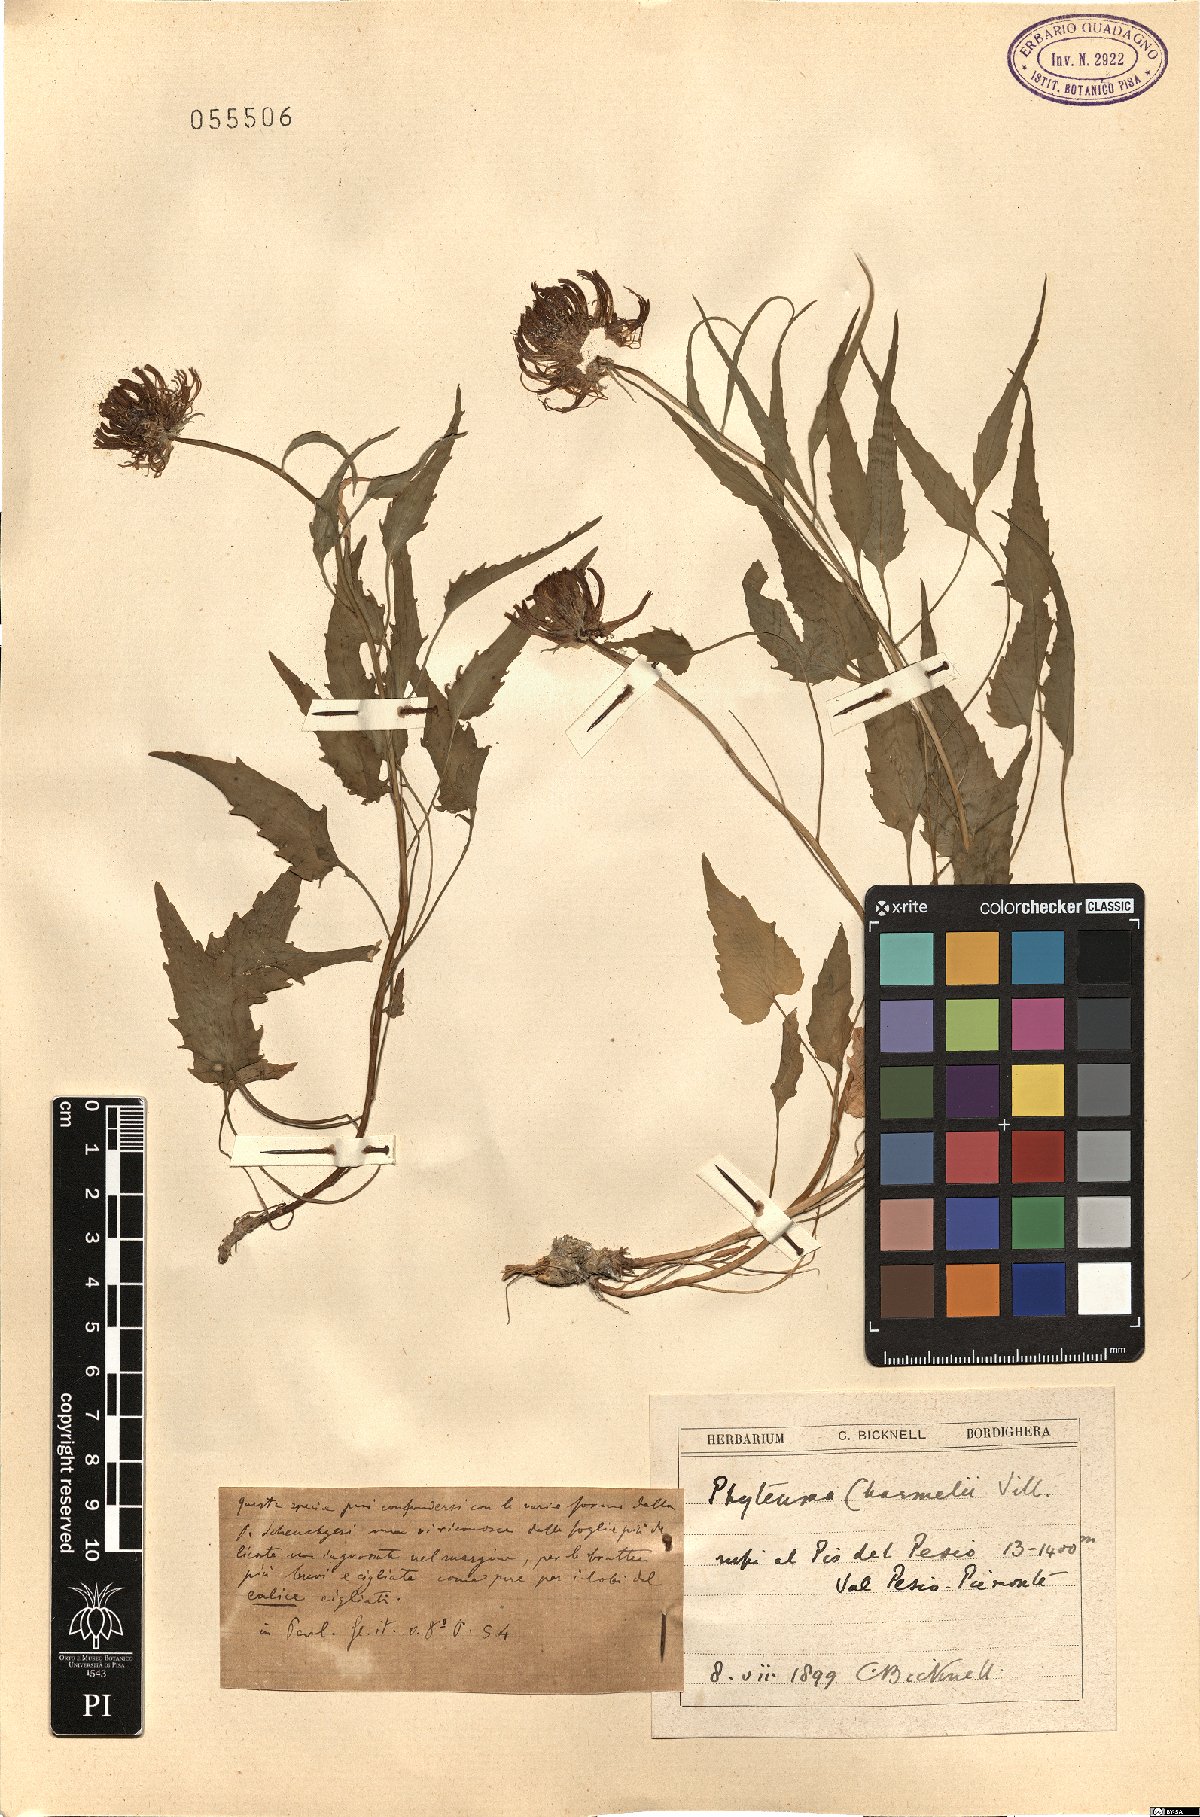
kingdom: Plantae
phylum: Tracheophyta
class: Magnoliopsida
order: Asterales
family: Campanulaceae
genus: Phyteuma
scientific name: Phyteuma charmelii
